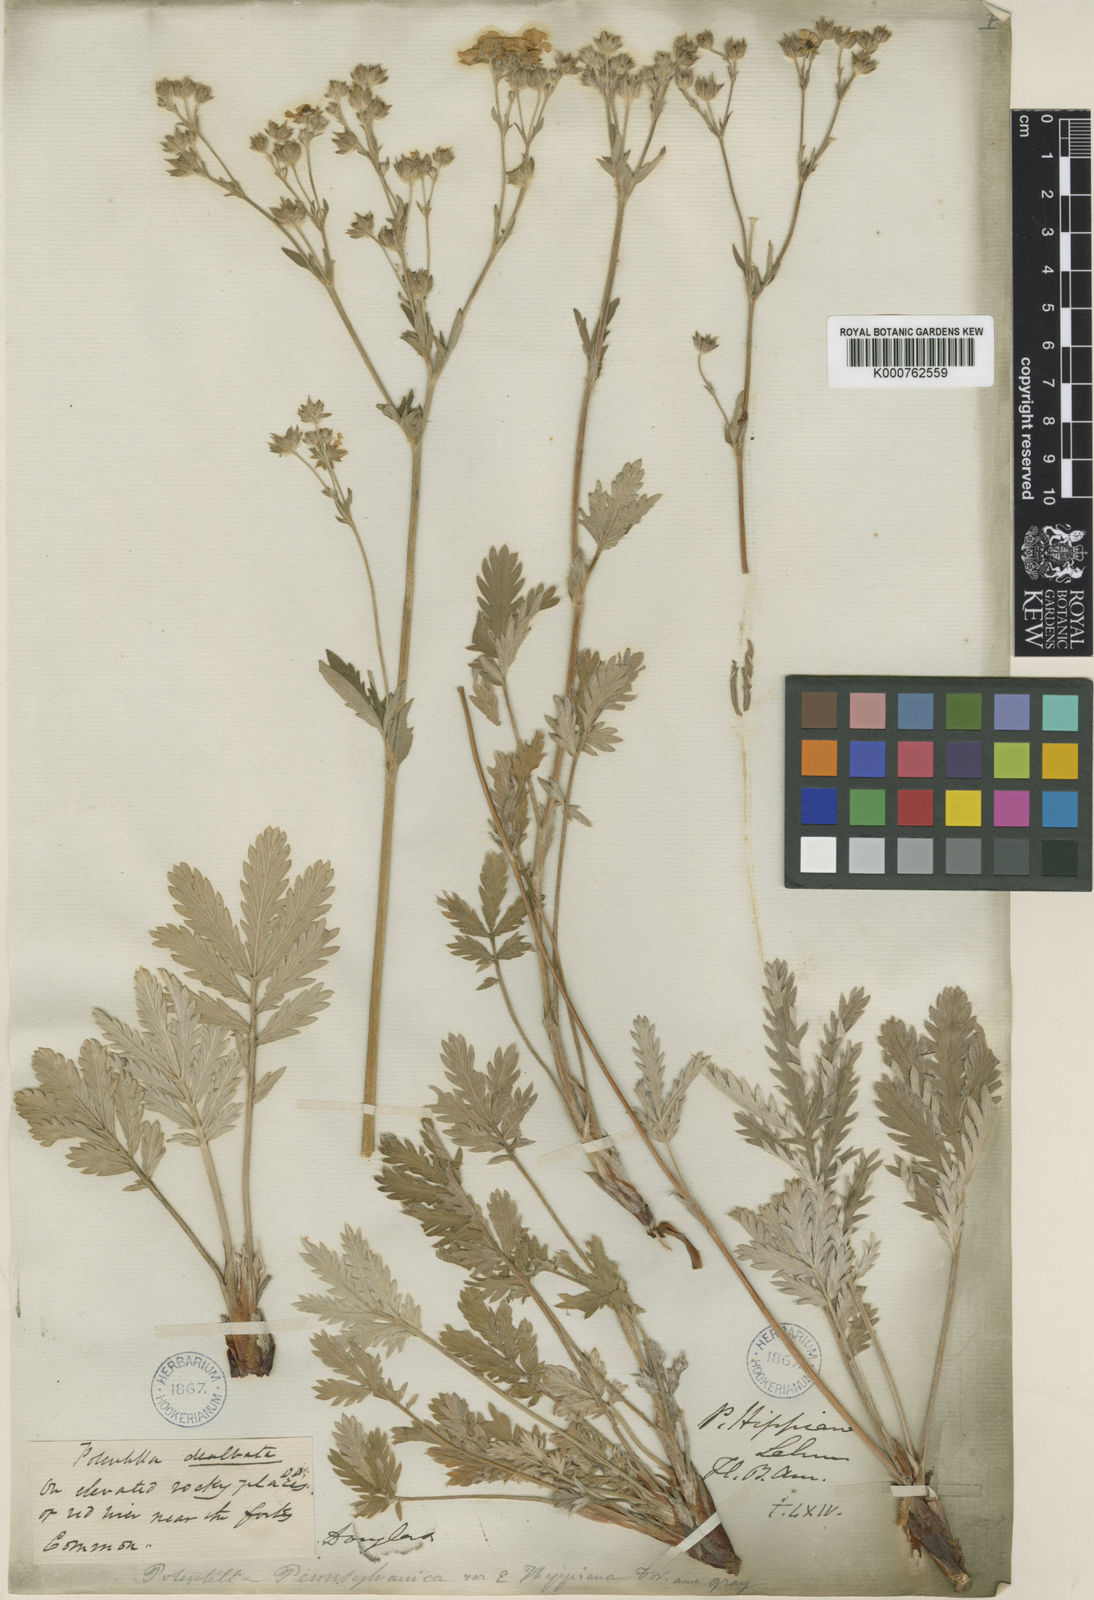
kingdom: Plantae
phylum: Tracheophyta
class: Magnoliopsida
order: Rosales
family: Rosaceae
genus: Potentilla
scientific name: Potentilla hippiana
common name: Woolly cinquefoil
